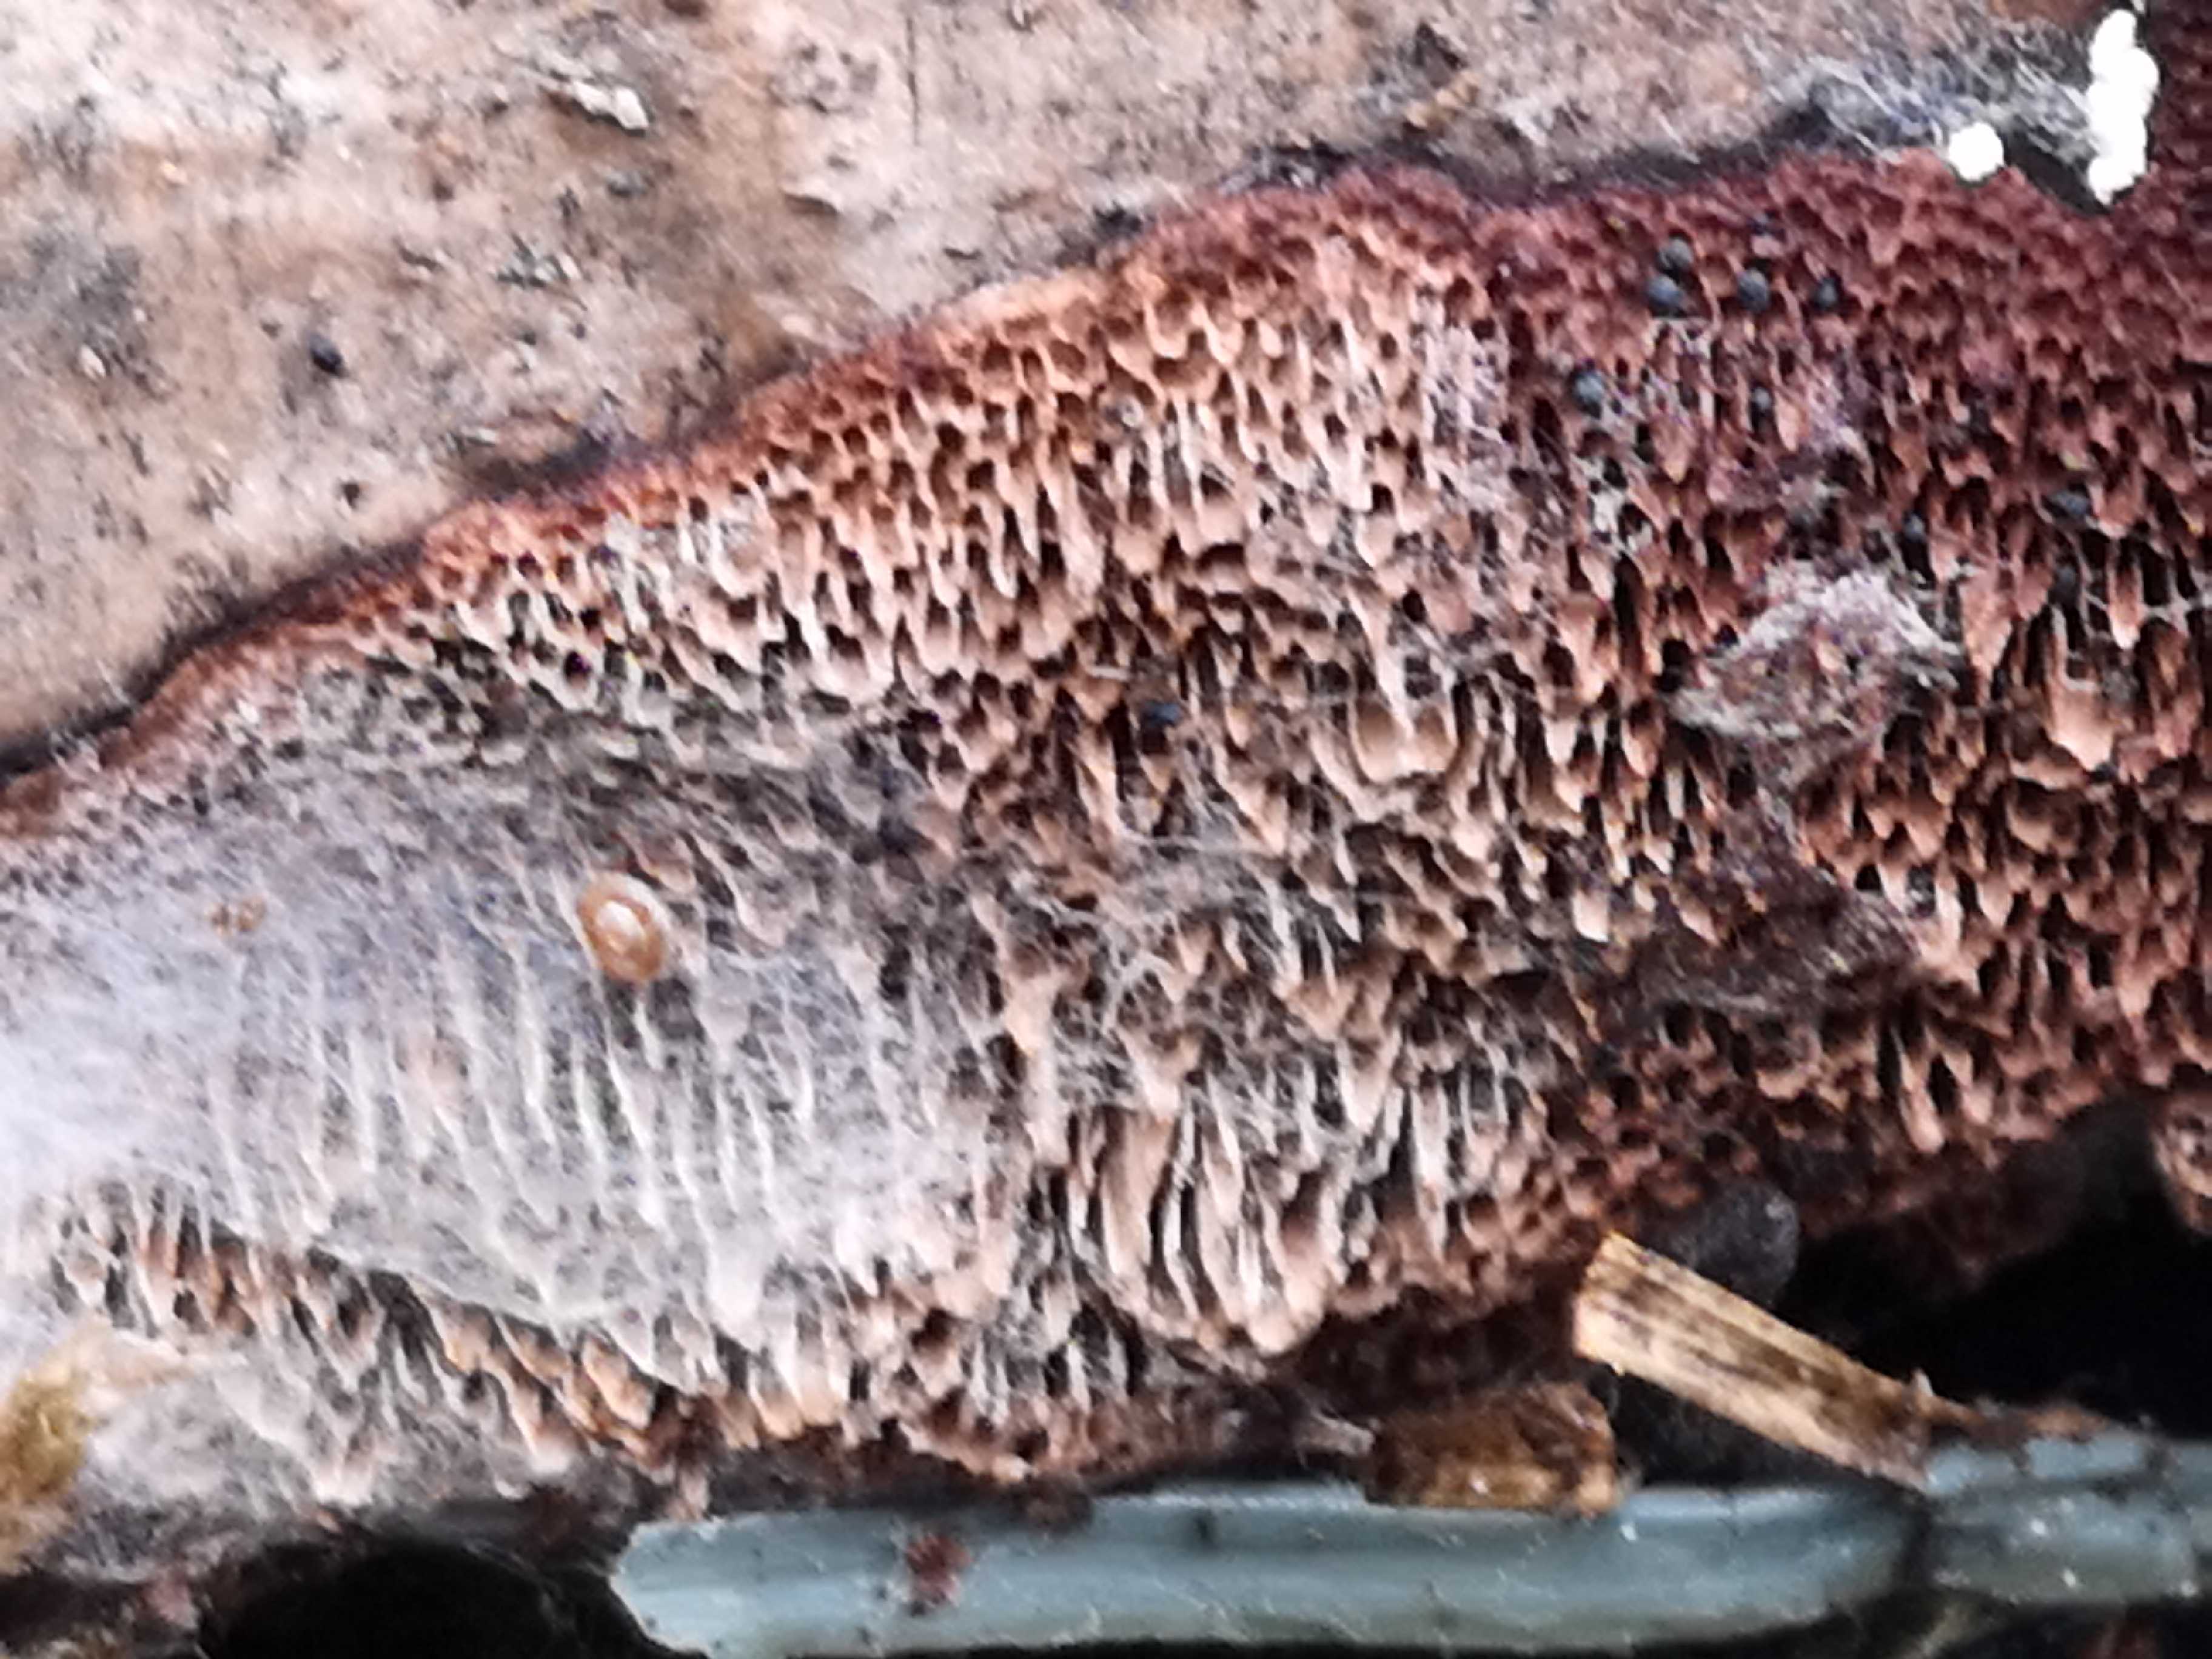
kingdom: Fungi
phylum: Basidiomycota
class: Agaricomycetes
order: Polyporales
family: Polyporaceae
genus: Podofomes
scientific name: Podofomes mollis
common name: blød begporesvamp
